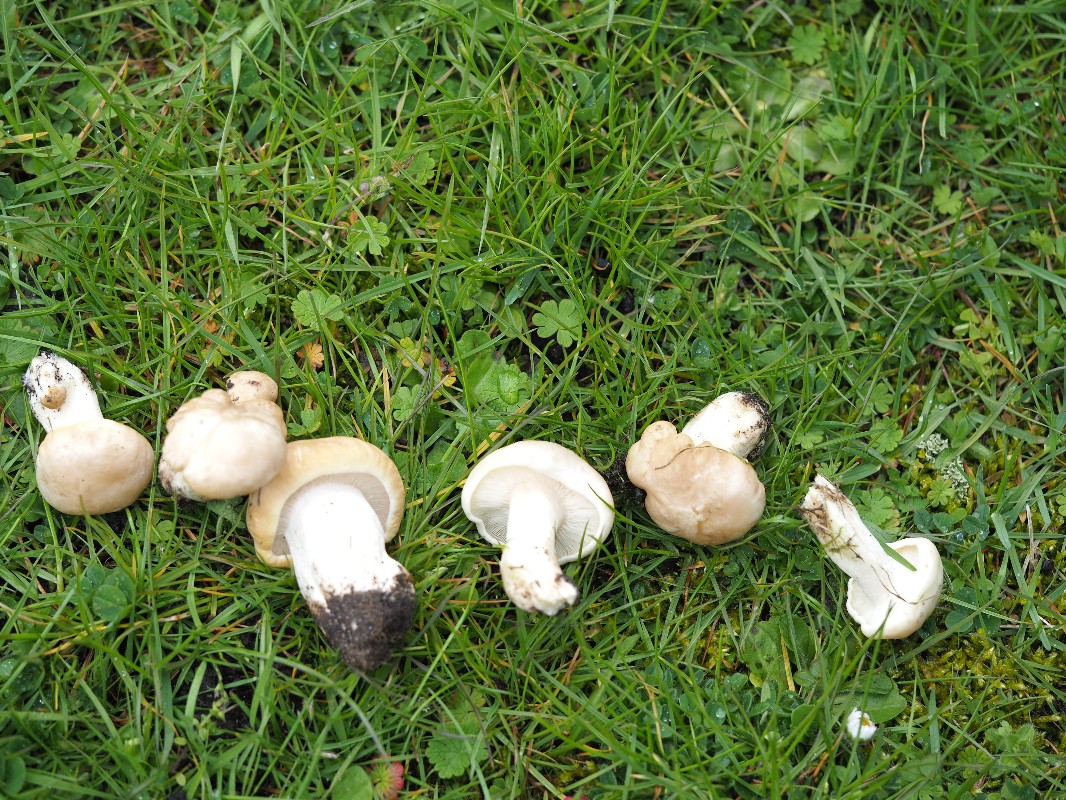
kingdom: Fungi
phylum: Basidiomycota
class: Agaricomycetes
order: Agaricales
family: Lyophyllaceae
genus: Calocybe
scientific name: Calocybe gambosa
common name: vårmusseron
